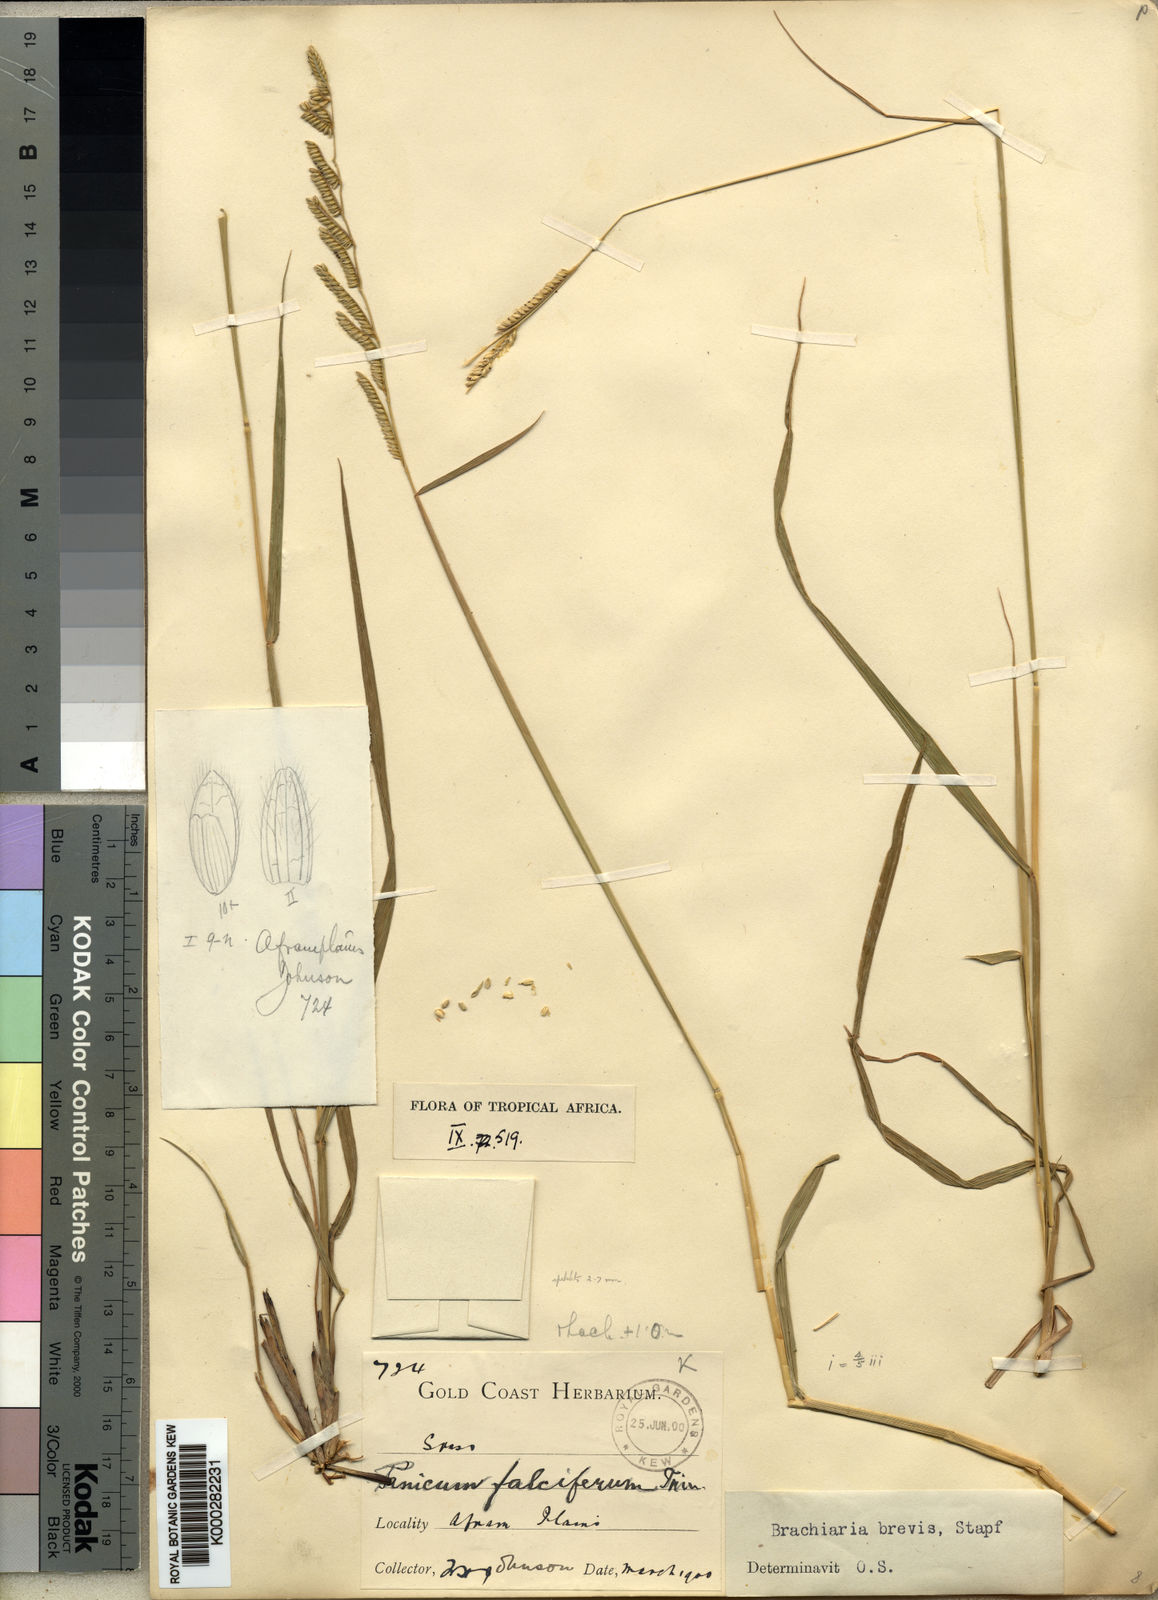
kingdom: Plantae
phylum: Tracheophyta
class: Liliopsida
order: Poales
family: Poaceae
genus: Urochloa
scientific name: Urochloa jubata
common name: Buffalograss
